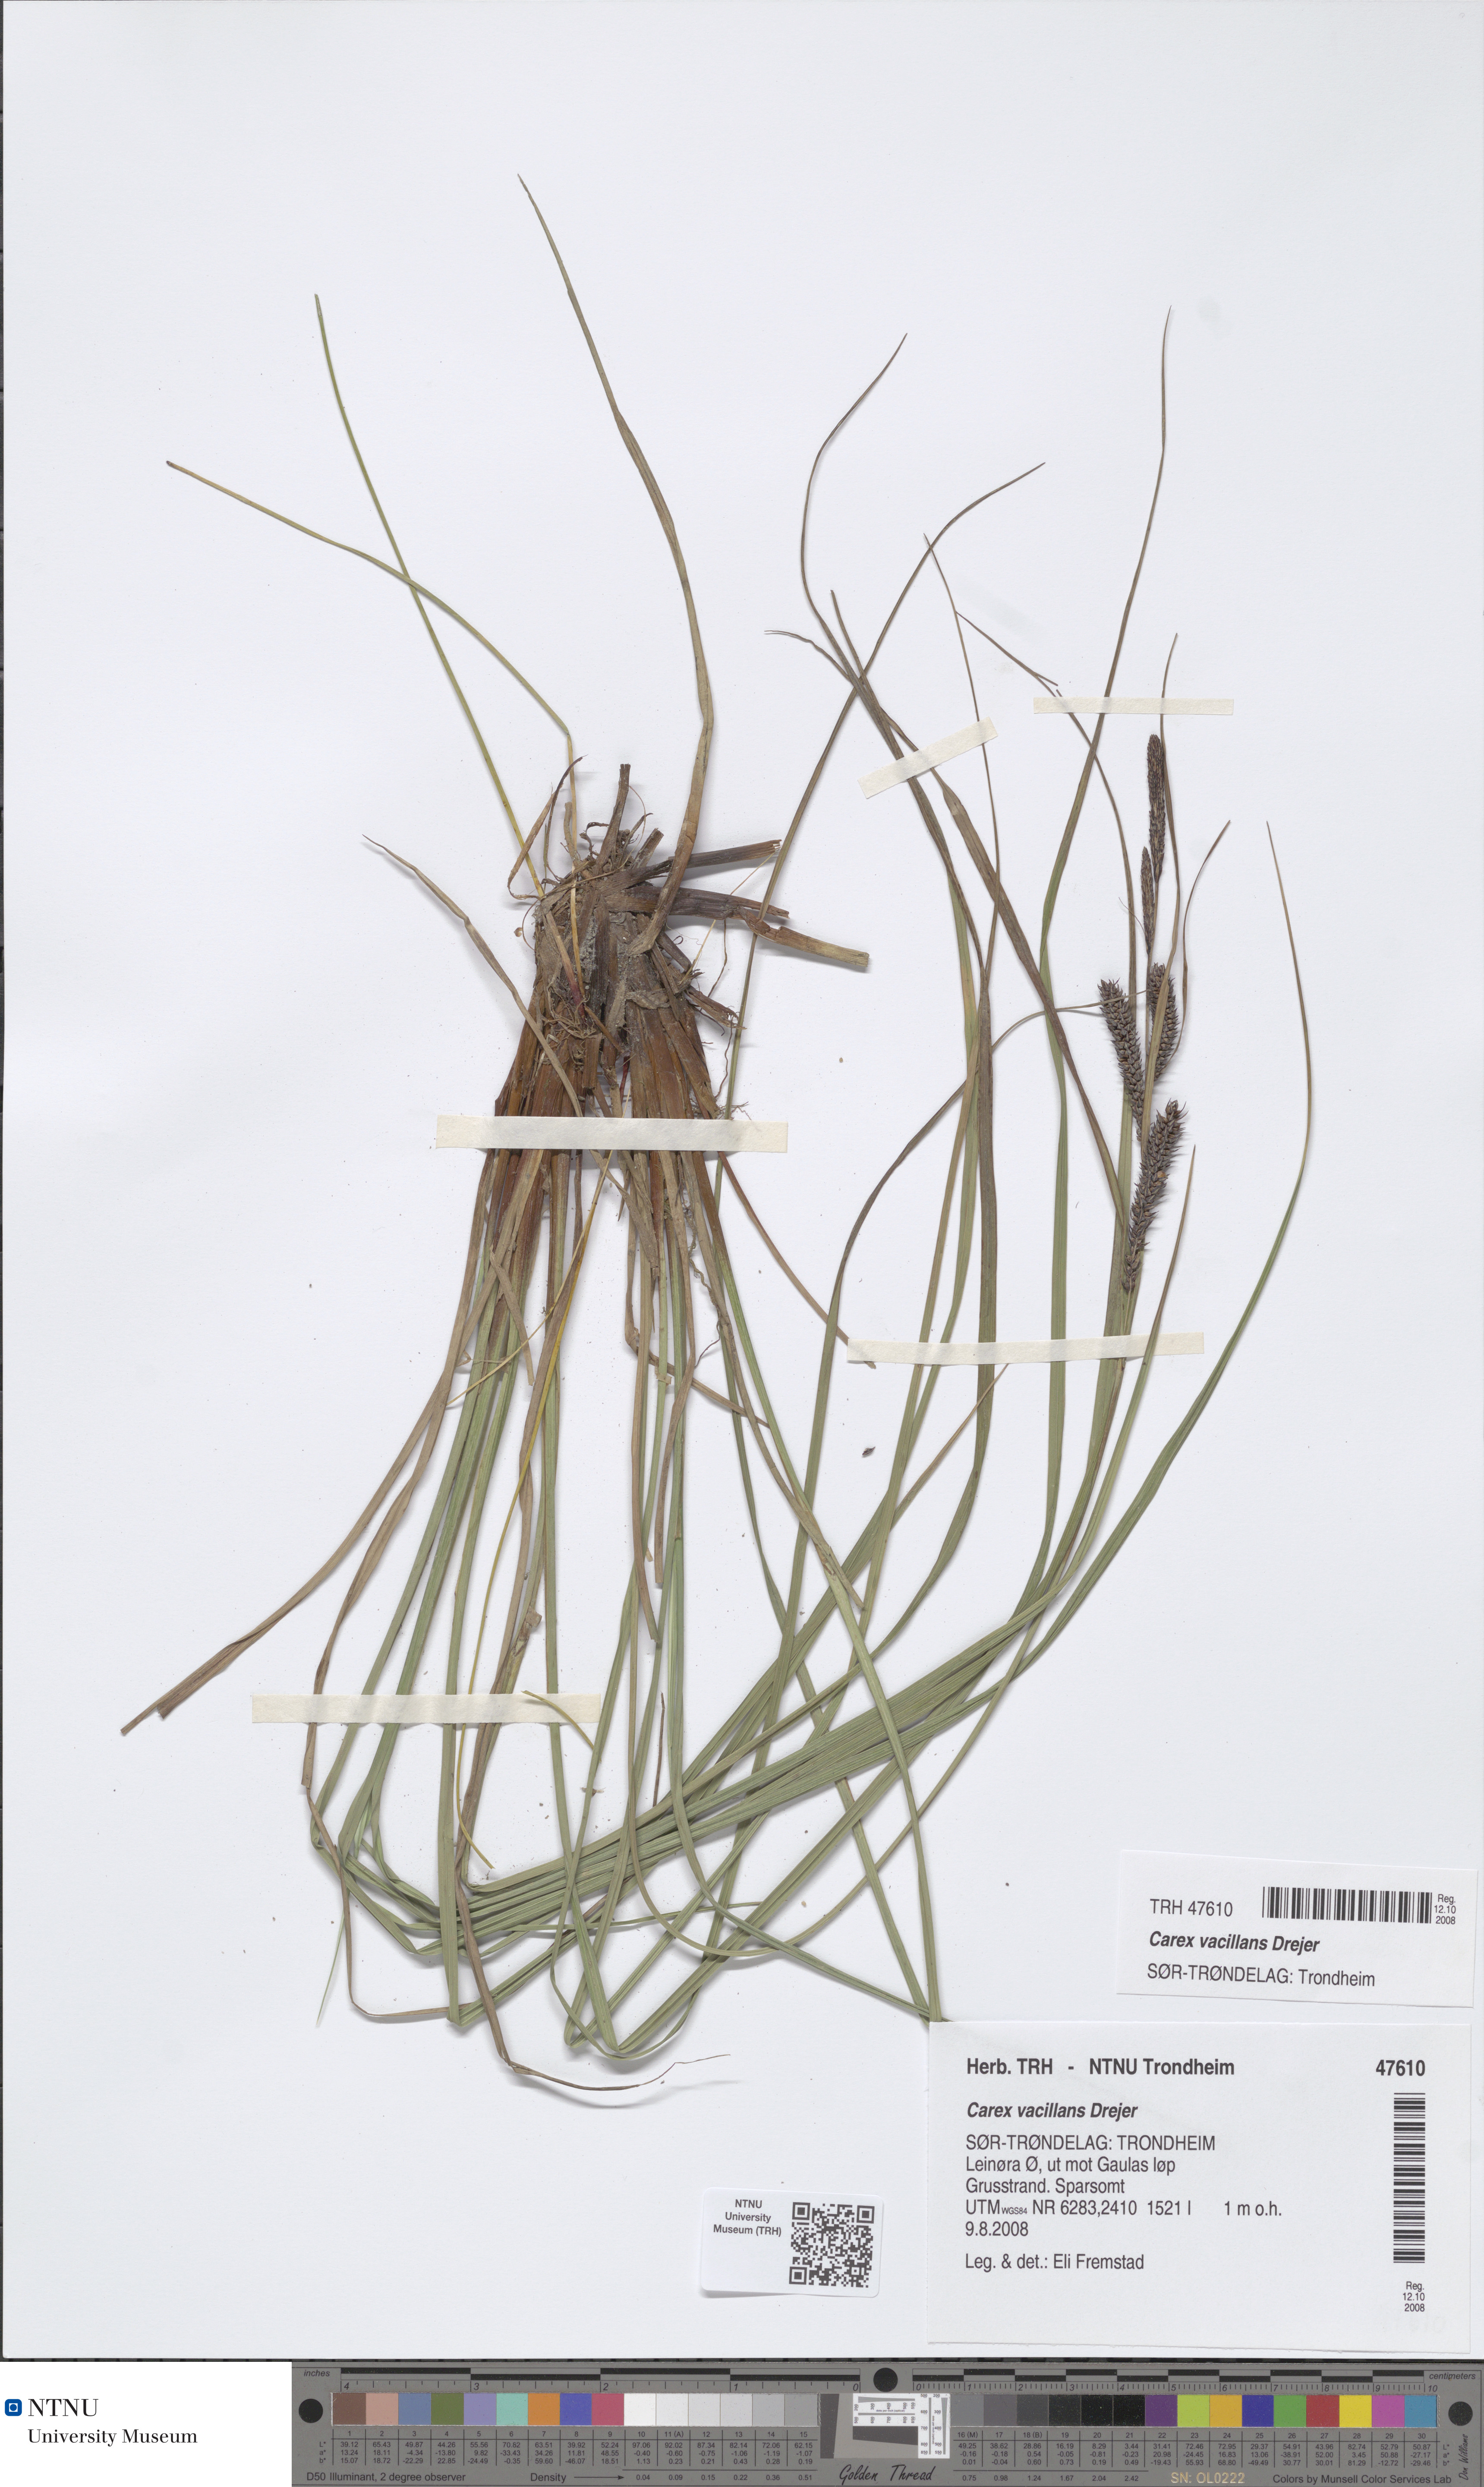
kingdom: Plantae
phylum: Tracheophyta
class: Liliopsida
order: Poales
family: Cyperaceae
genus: Carex
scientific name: Carex vacillans
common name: Sedge
